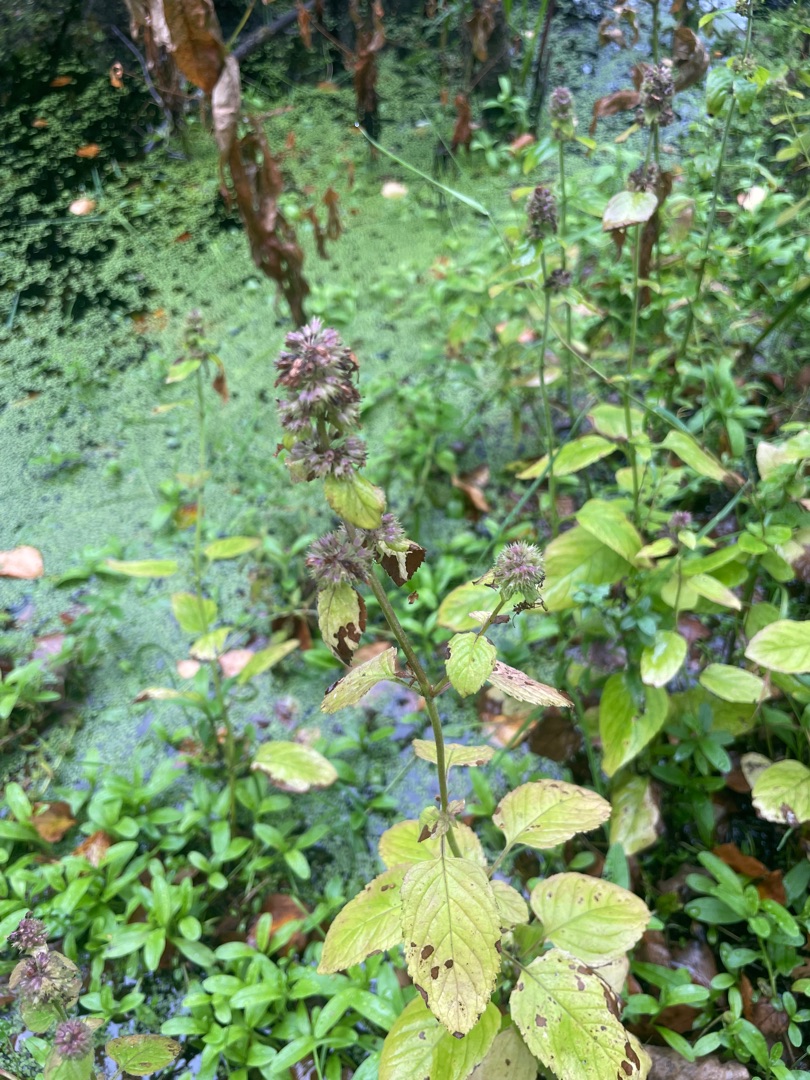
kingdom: Plantae
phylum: Tracheophyta
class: Magnoliopsida
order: Lamiales
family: Lamiaceae
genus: Mentha
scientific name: Mentha aquatica
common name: Vand-mynte
